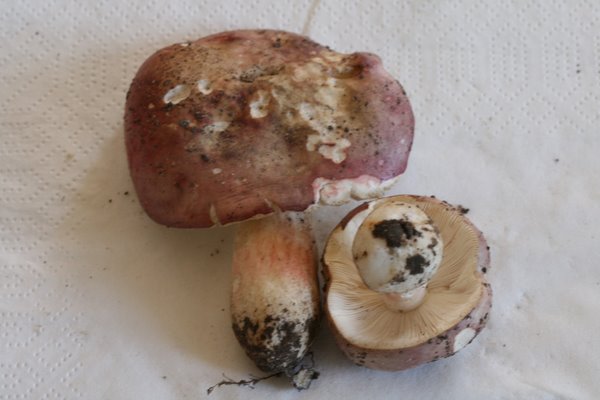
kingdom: Fungi
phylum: Basidiomycota
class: Agaricomycetes
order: Russulales
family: Russulaceae
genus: Russula
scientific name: Russula depallens
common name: falmende skørhat
